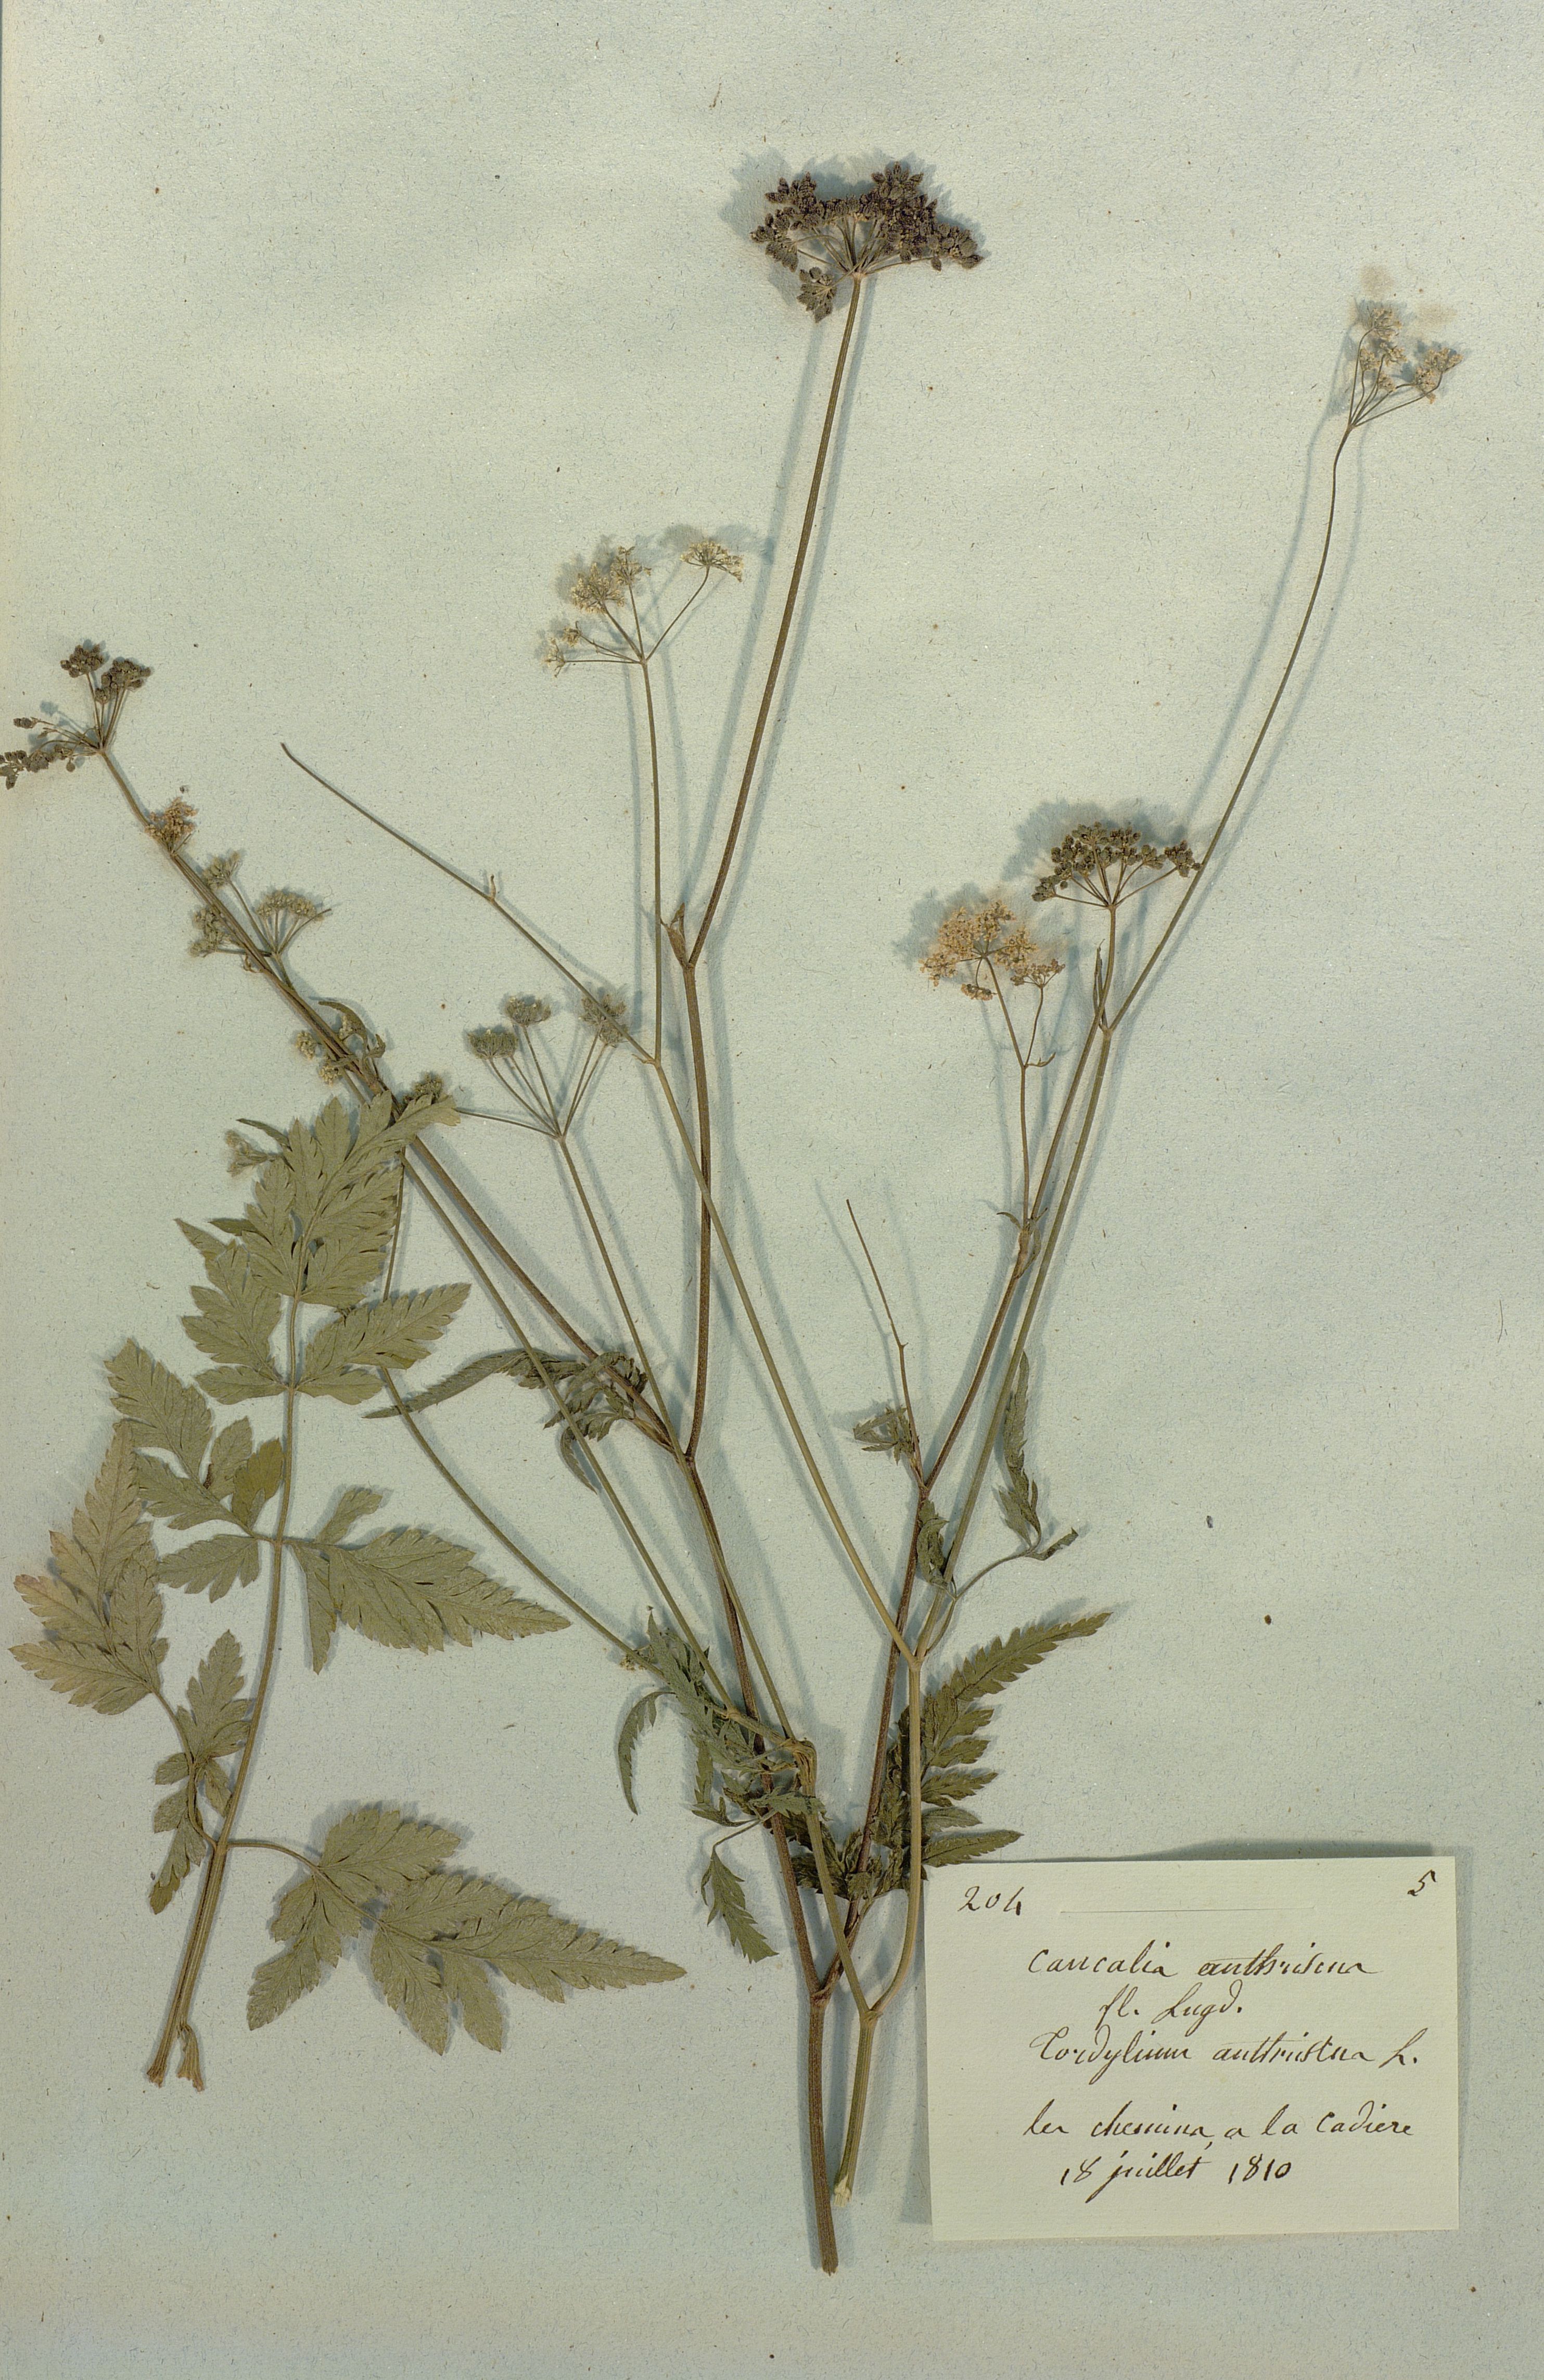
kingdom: Plantae
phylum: Tracheophyta
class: Magnoliopsida
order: Apiales
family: Apiaceae
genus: Torilis
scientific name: Torilis japonica
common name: Upright hedge-parsley
